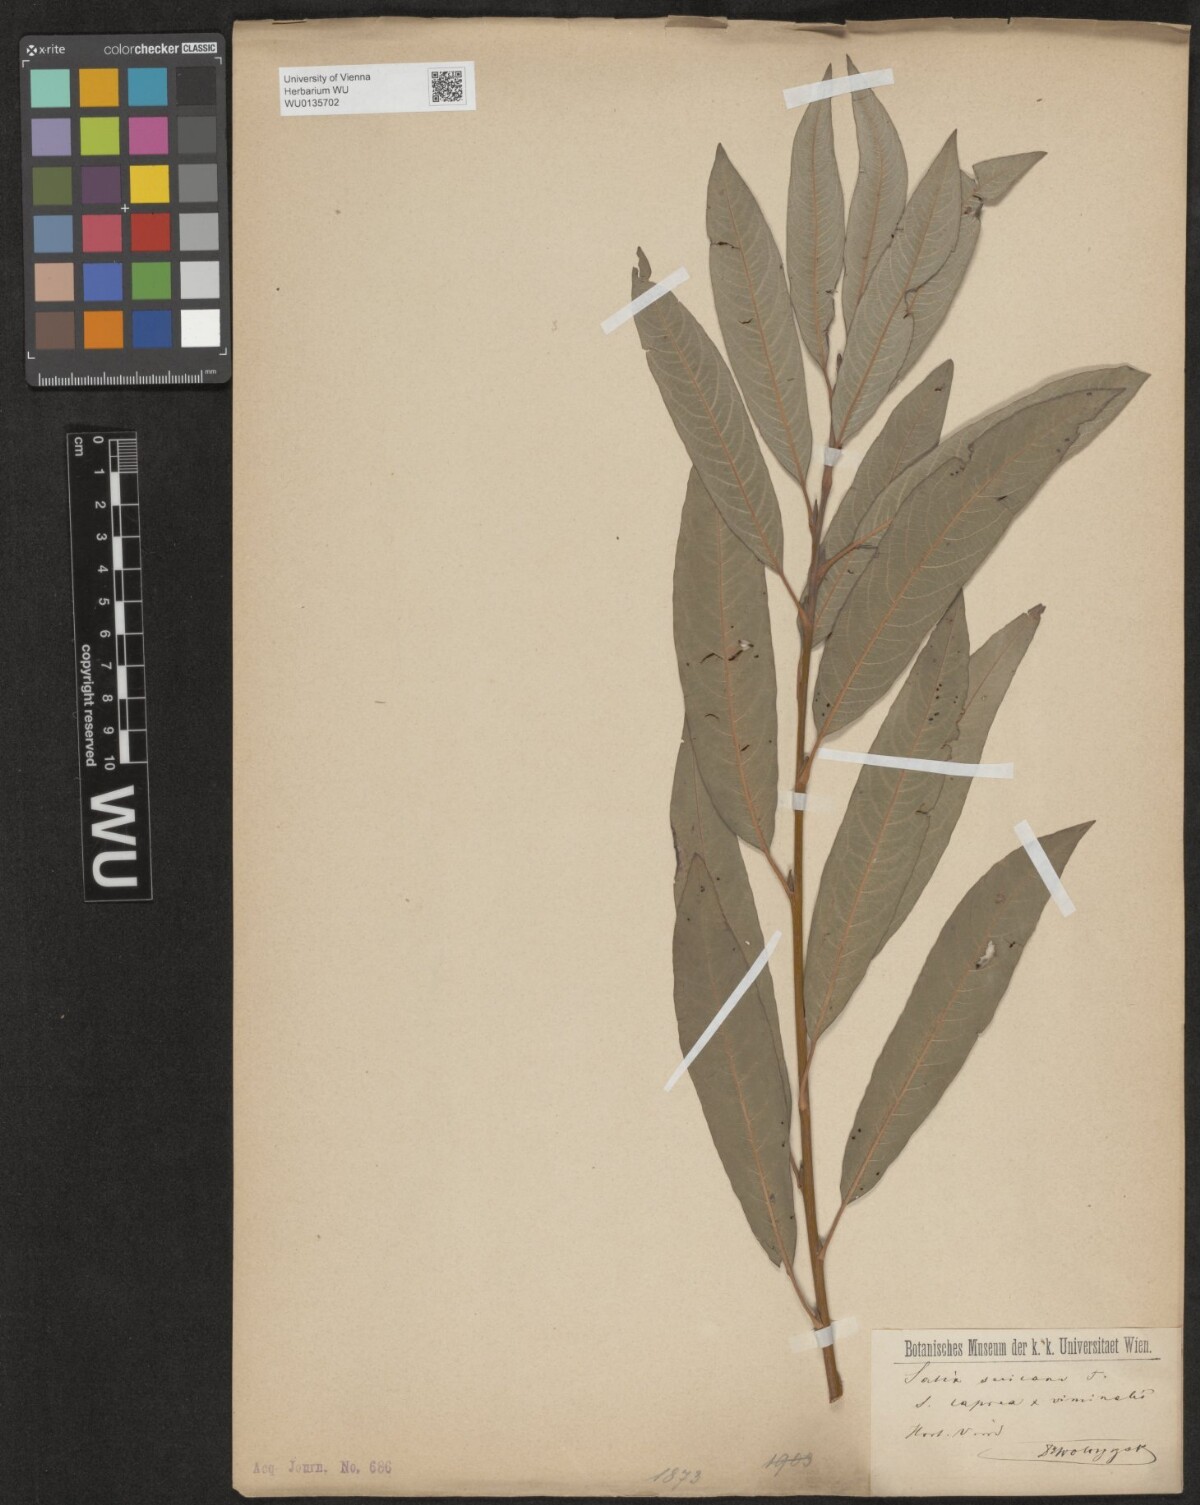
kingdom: Plantae
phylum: Tracheophyta
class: Magnoliopsida
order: Malpighiales
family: Salicaceae
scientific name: Salicaceae
